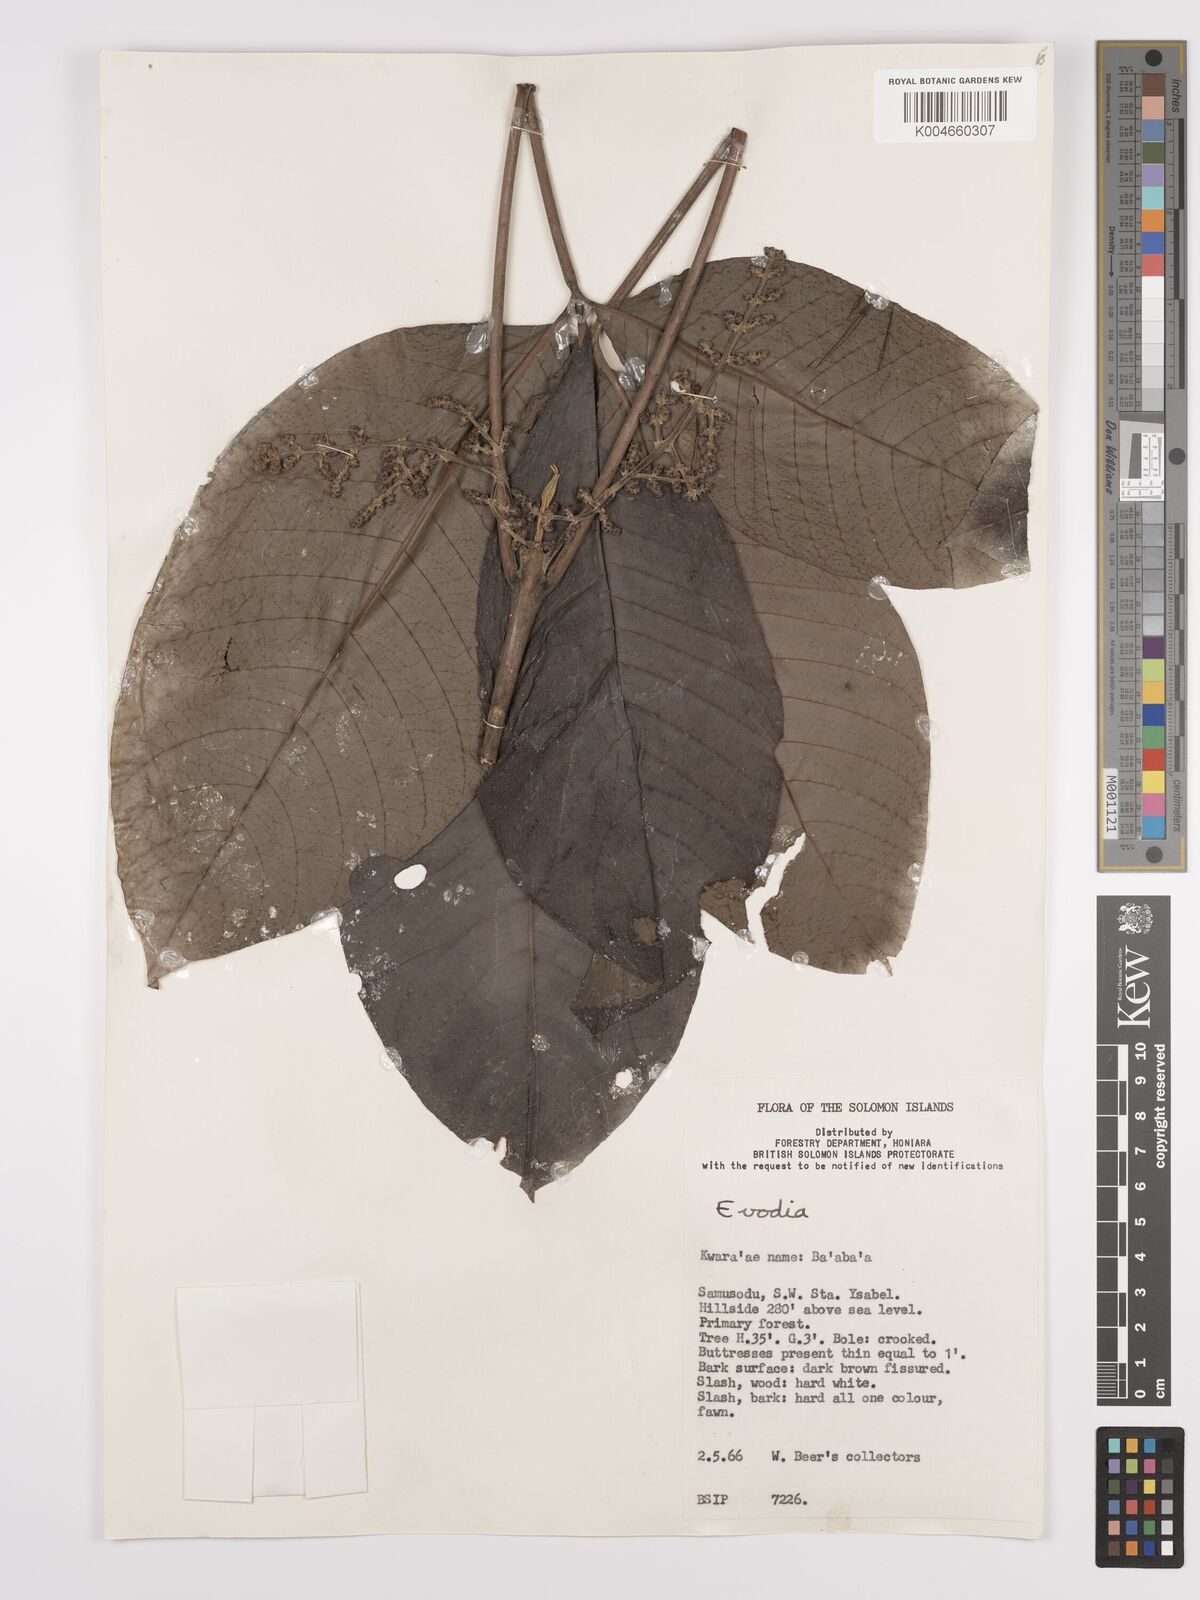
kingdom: Plantae
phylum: Tracheophyta
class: Magnoliopsida
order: Sapindales
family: Rutaceae
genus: Euodia
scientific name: Euodia
